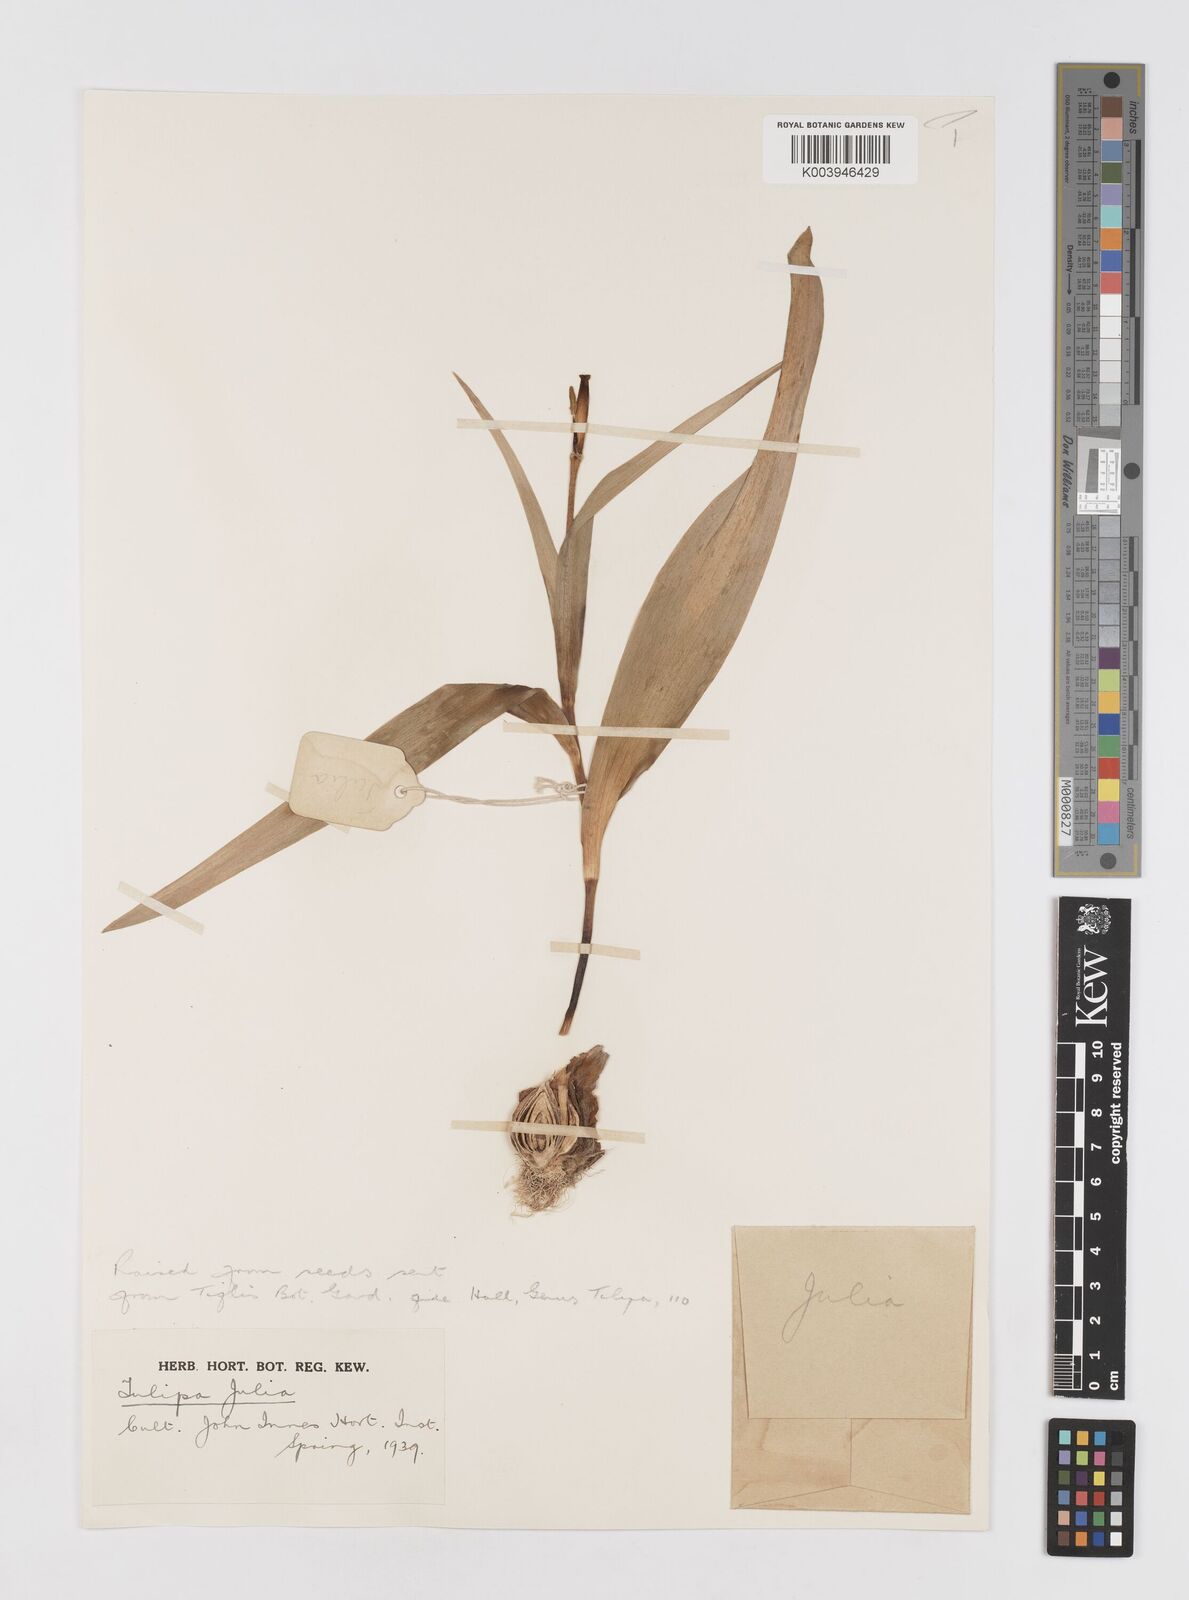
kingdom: Plantae
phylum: Tracheophyta
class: Liliopsida
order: Liliales
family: Liliaceae
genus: Tulipa
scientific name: Tulipa
